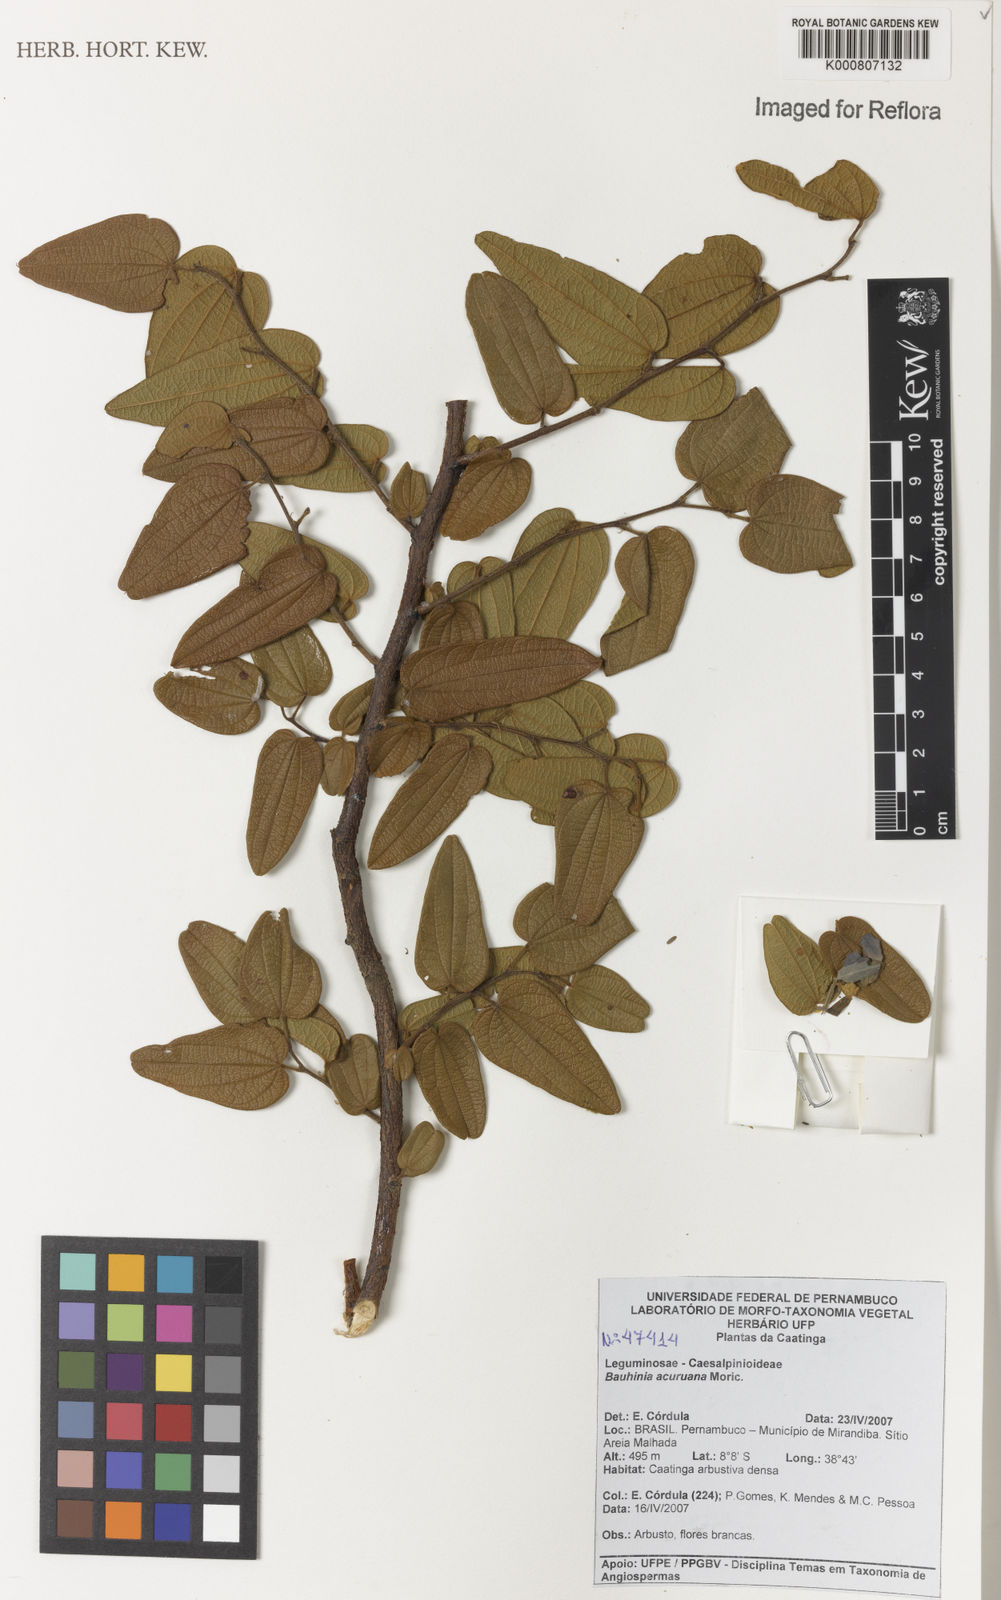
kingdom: Plantae
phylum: Tracheophyta
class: Magnoliopsida
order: Fabales
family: Fabaceae
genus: Bauhinia
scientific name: Bauhinia acuruana
